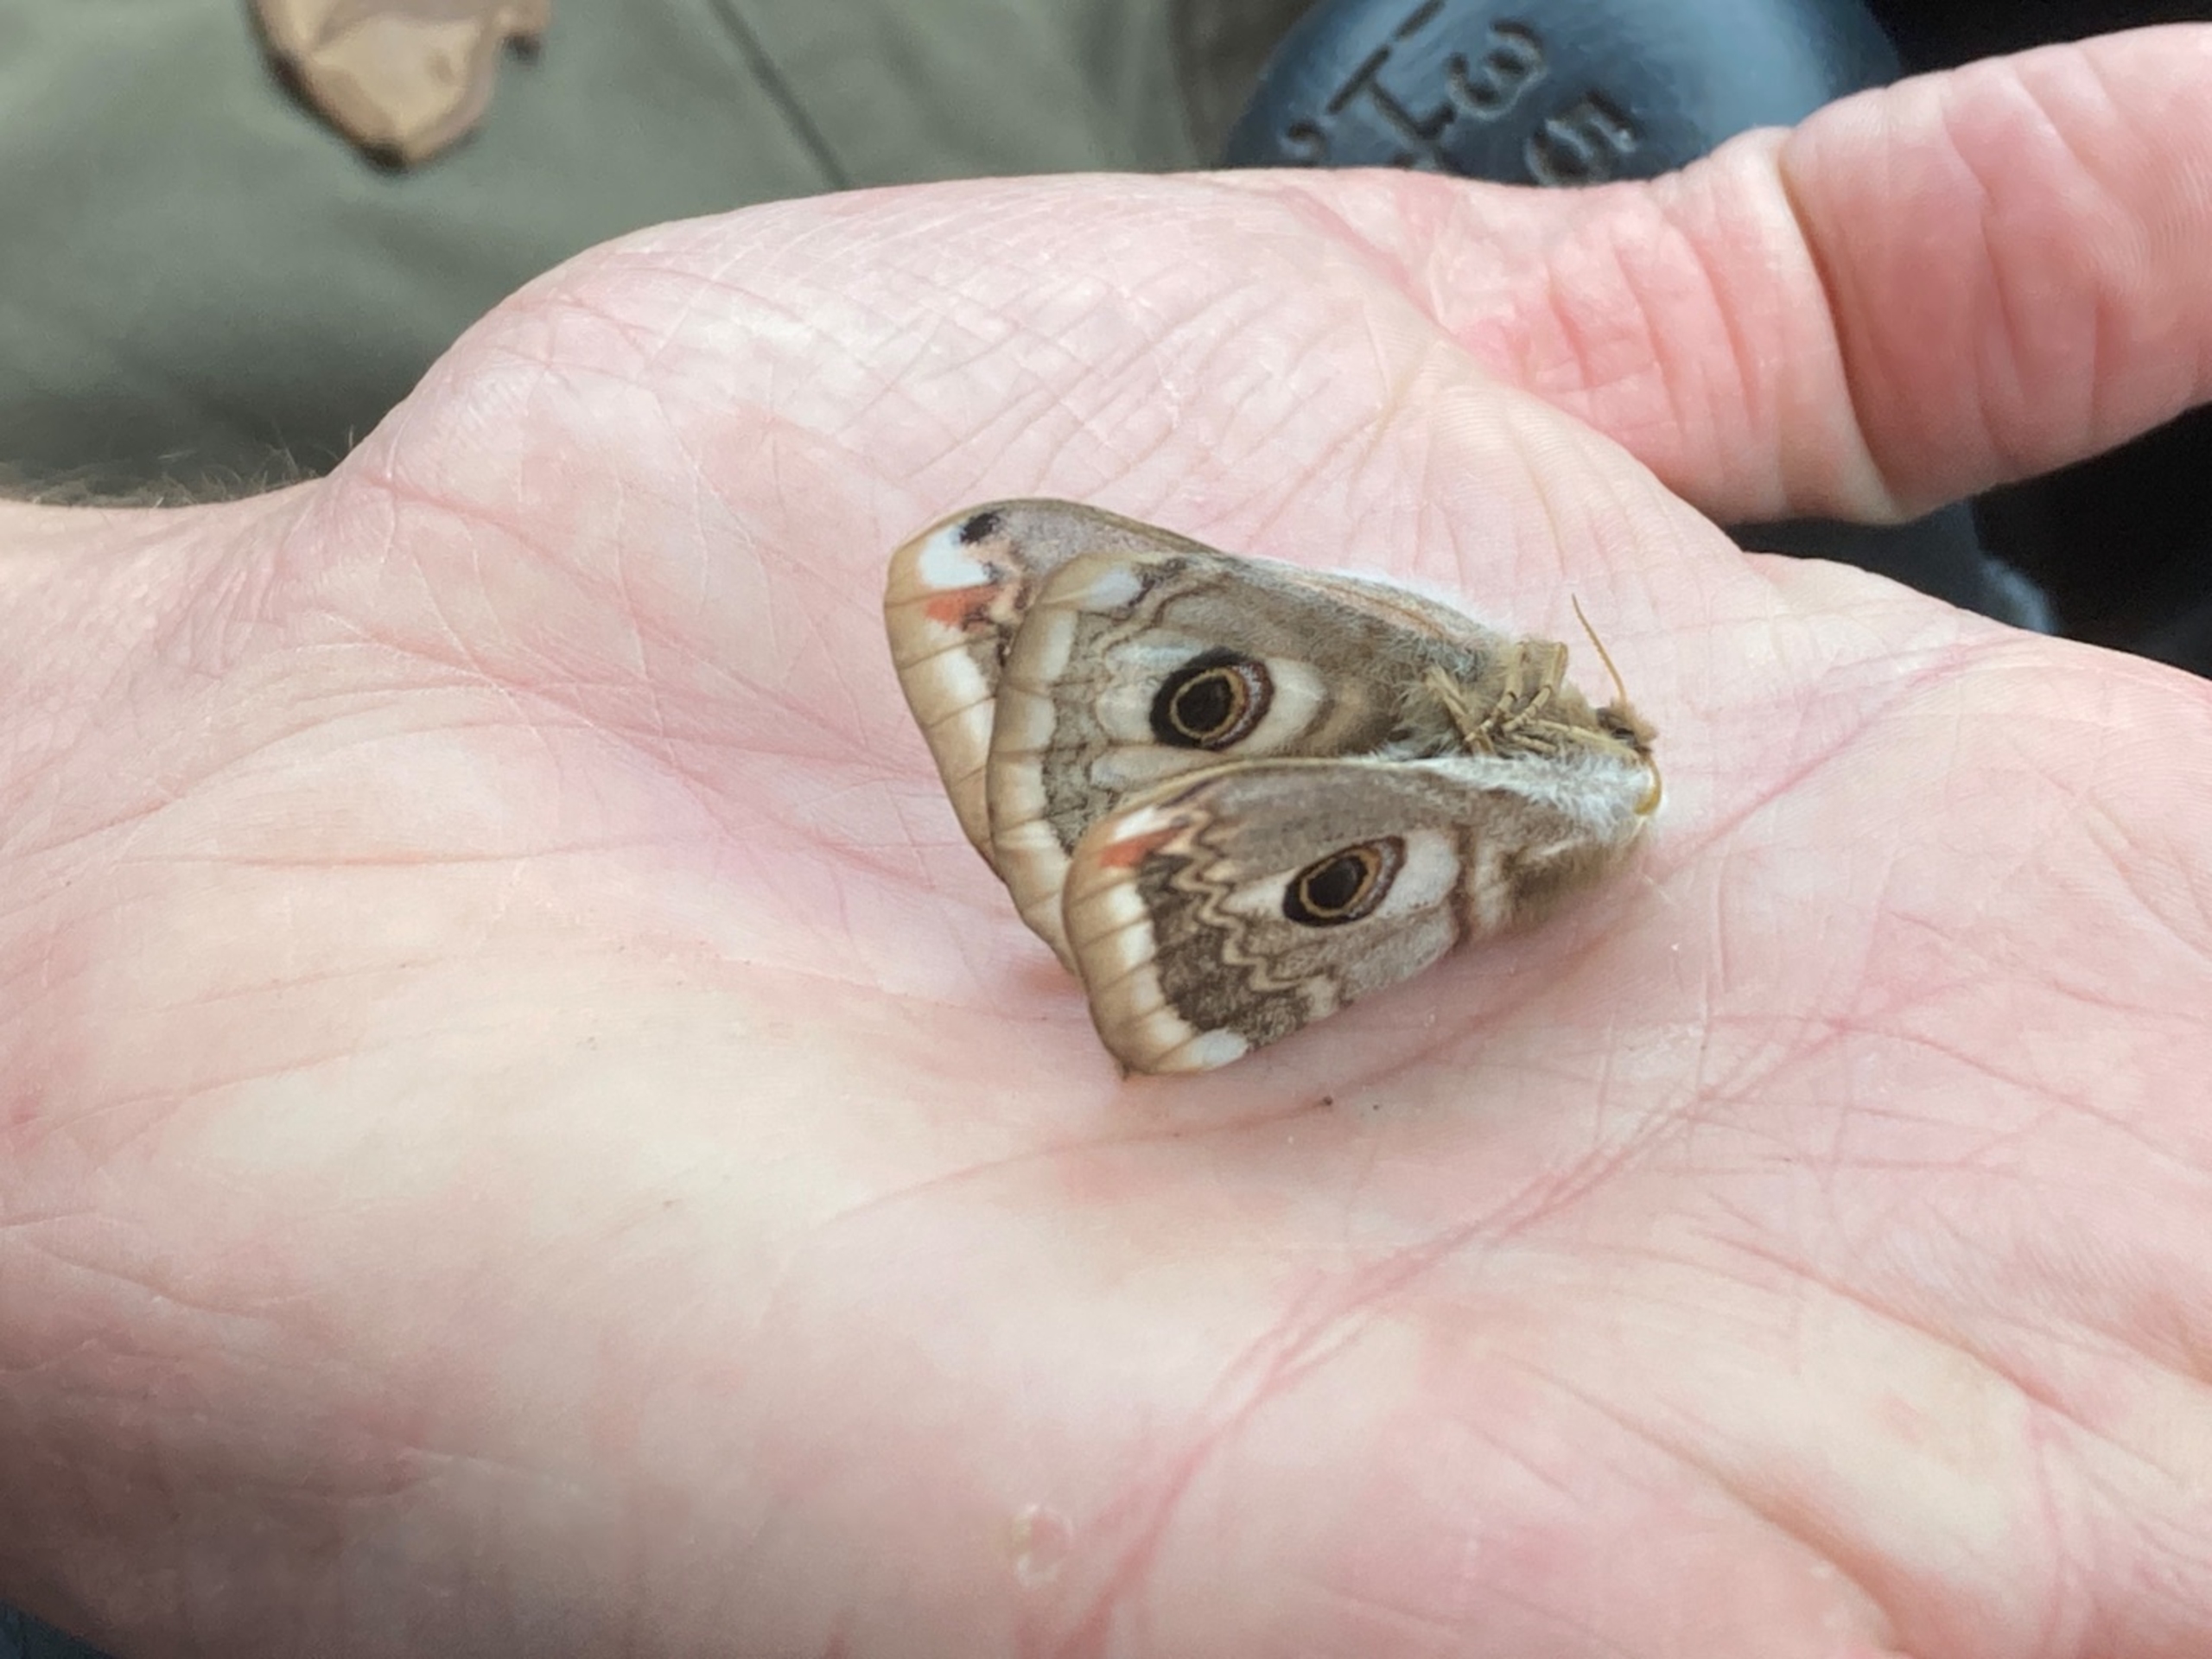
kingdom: Animalia
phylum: Arthropoda
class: Insecta
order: Lepidoptera
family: Saturniidae
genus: Saturnia
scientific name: Saturnia pavonia
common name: Lille natpåfugleøje
